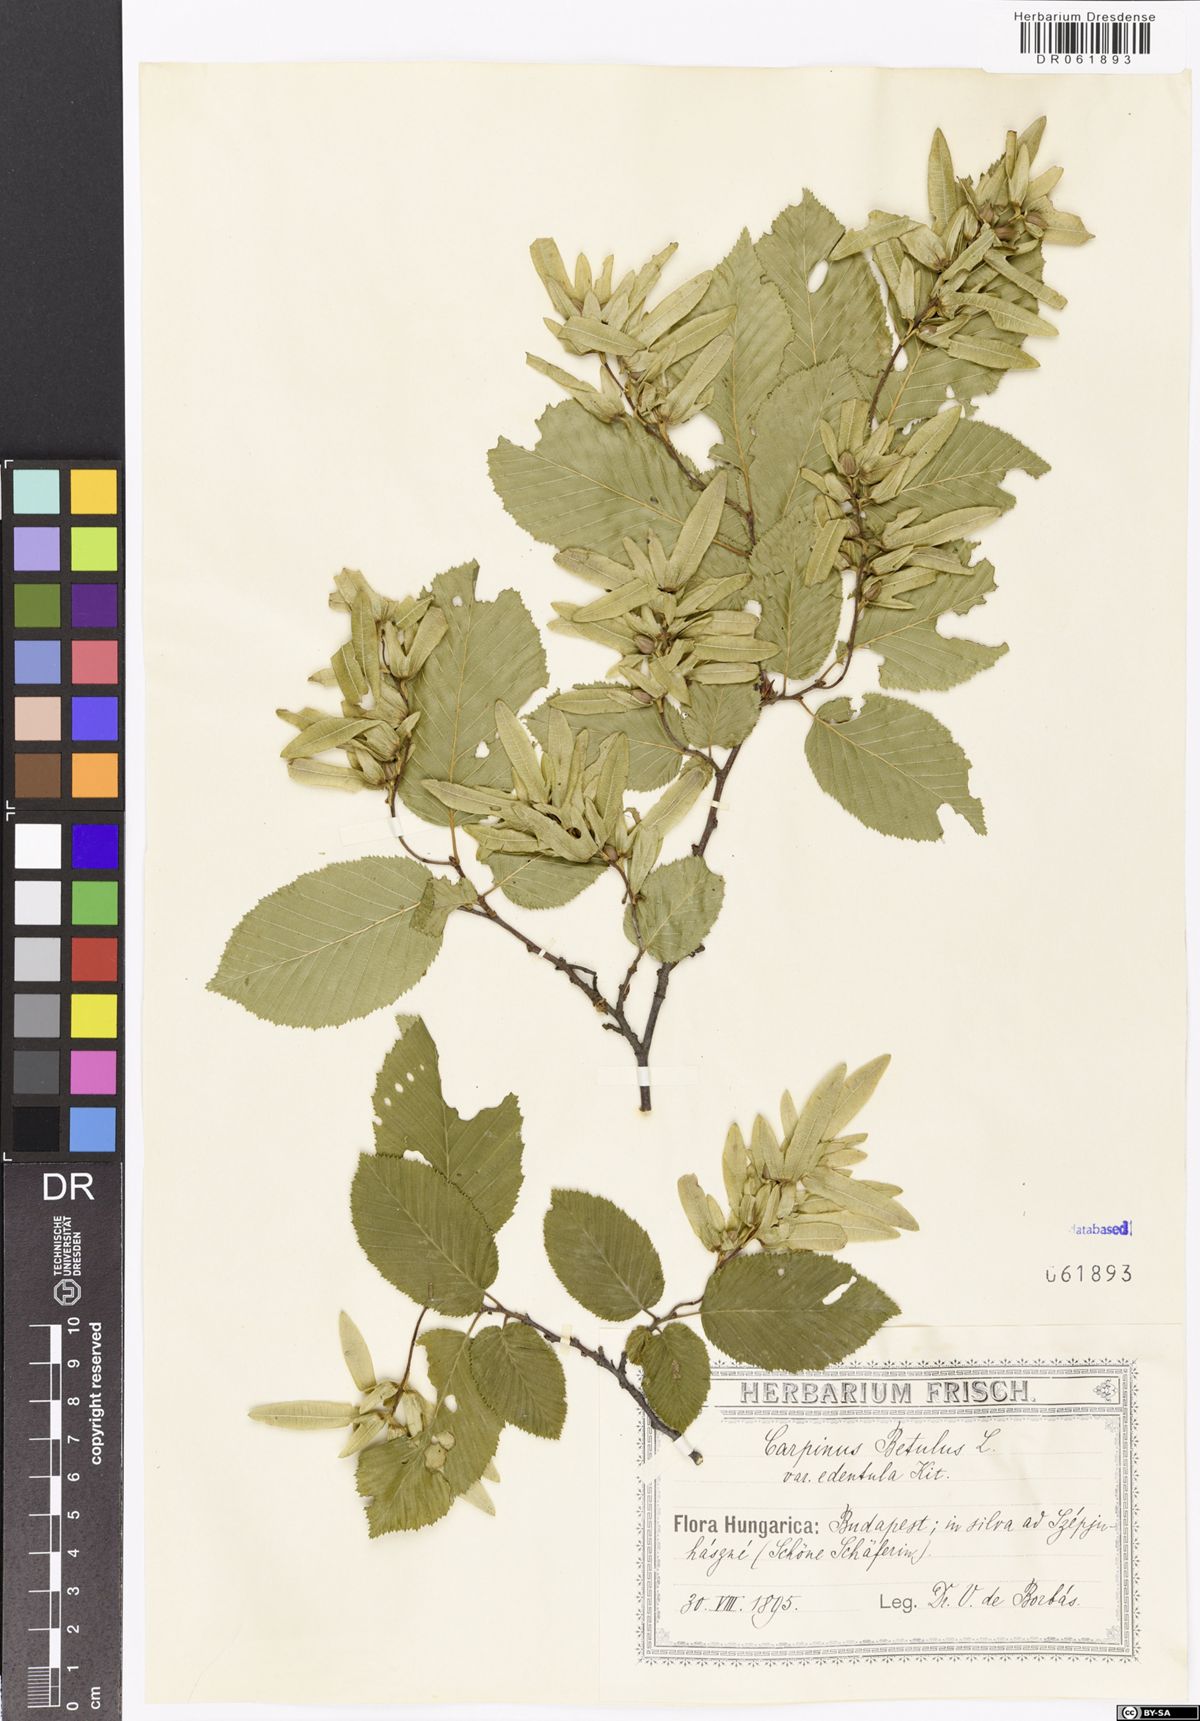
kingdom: Plantae
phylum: Tracheophyta
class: Magnoliopsida
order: Fagales
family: Betulaceae
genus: Carpinus
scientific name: Carpinus betulus
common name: Hornbeam
